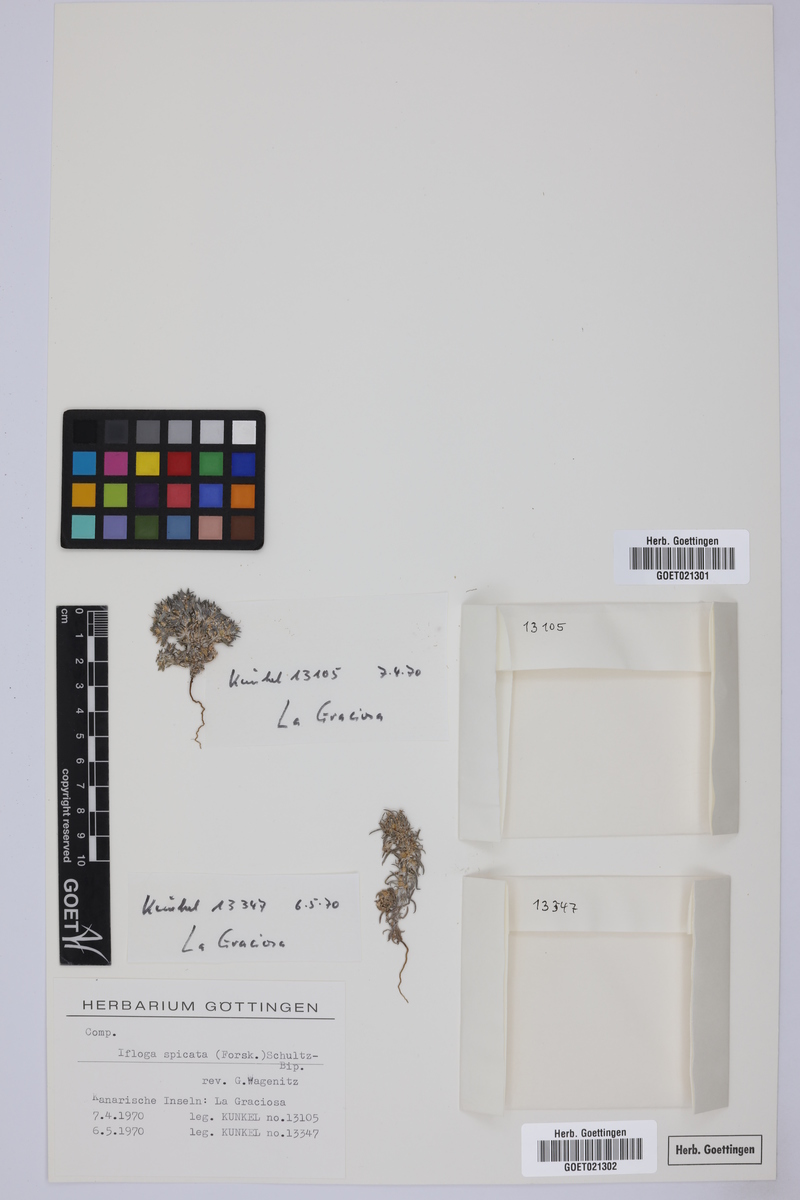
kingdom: Plantae
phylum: Tracheophyta
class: Magnoliopsida
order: Asterales
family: Asteraceae
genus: Ifloga
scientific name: Ifloga spicata
